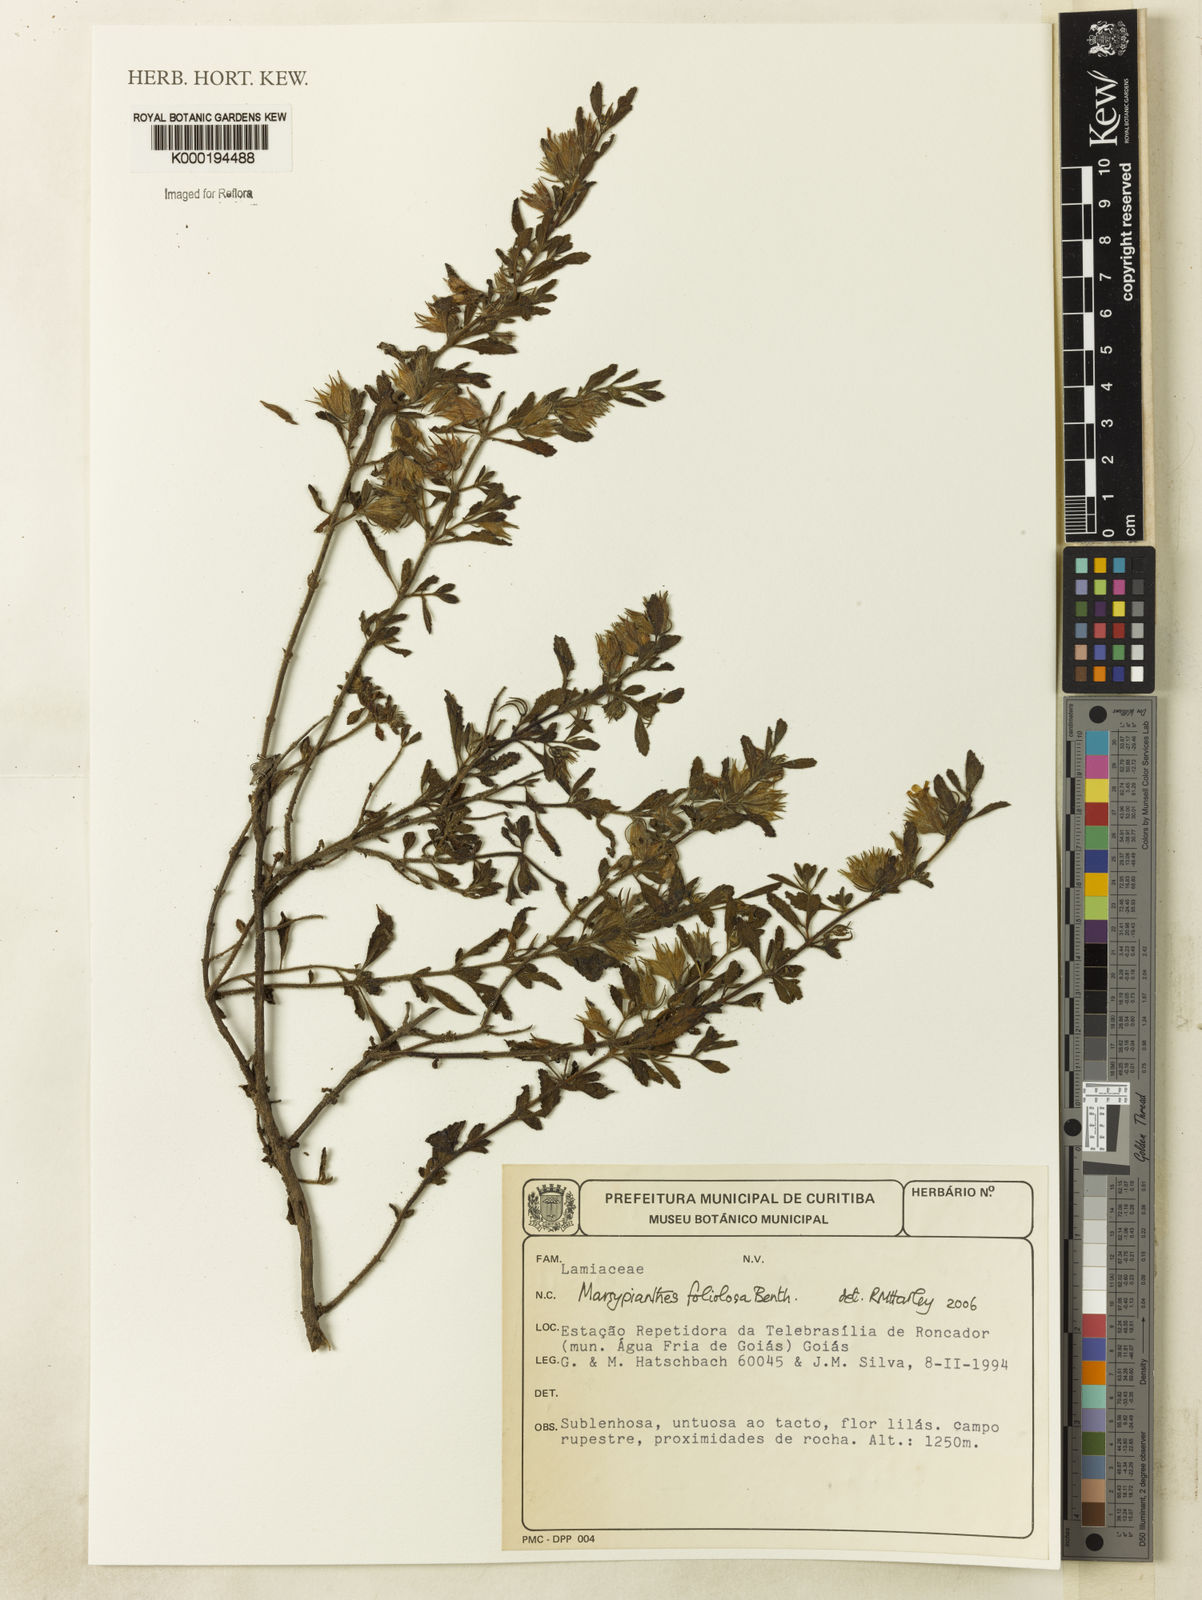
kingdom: Plantae
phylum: Tracheophyta
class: Magnoliopsida
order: Lamiales
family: Lamiaceae
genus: Marsypianthes
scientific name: Marsypianthes foliolosa
